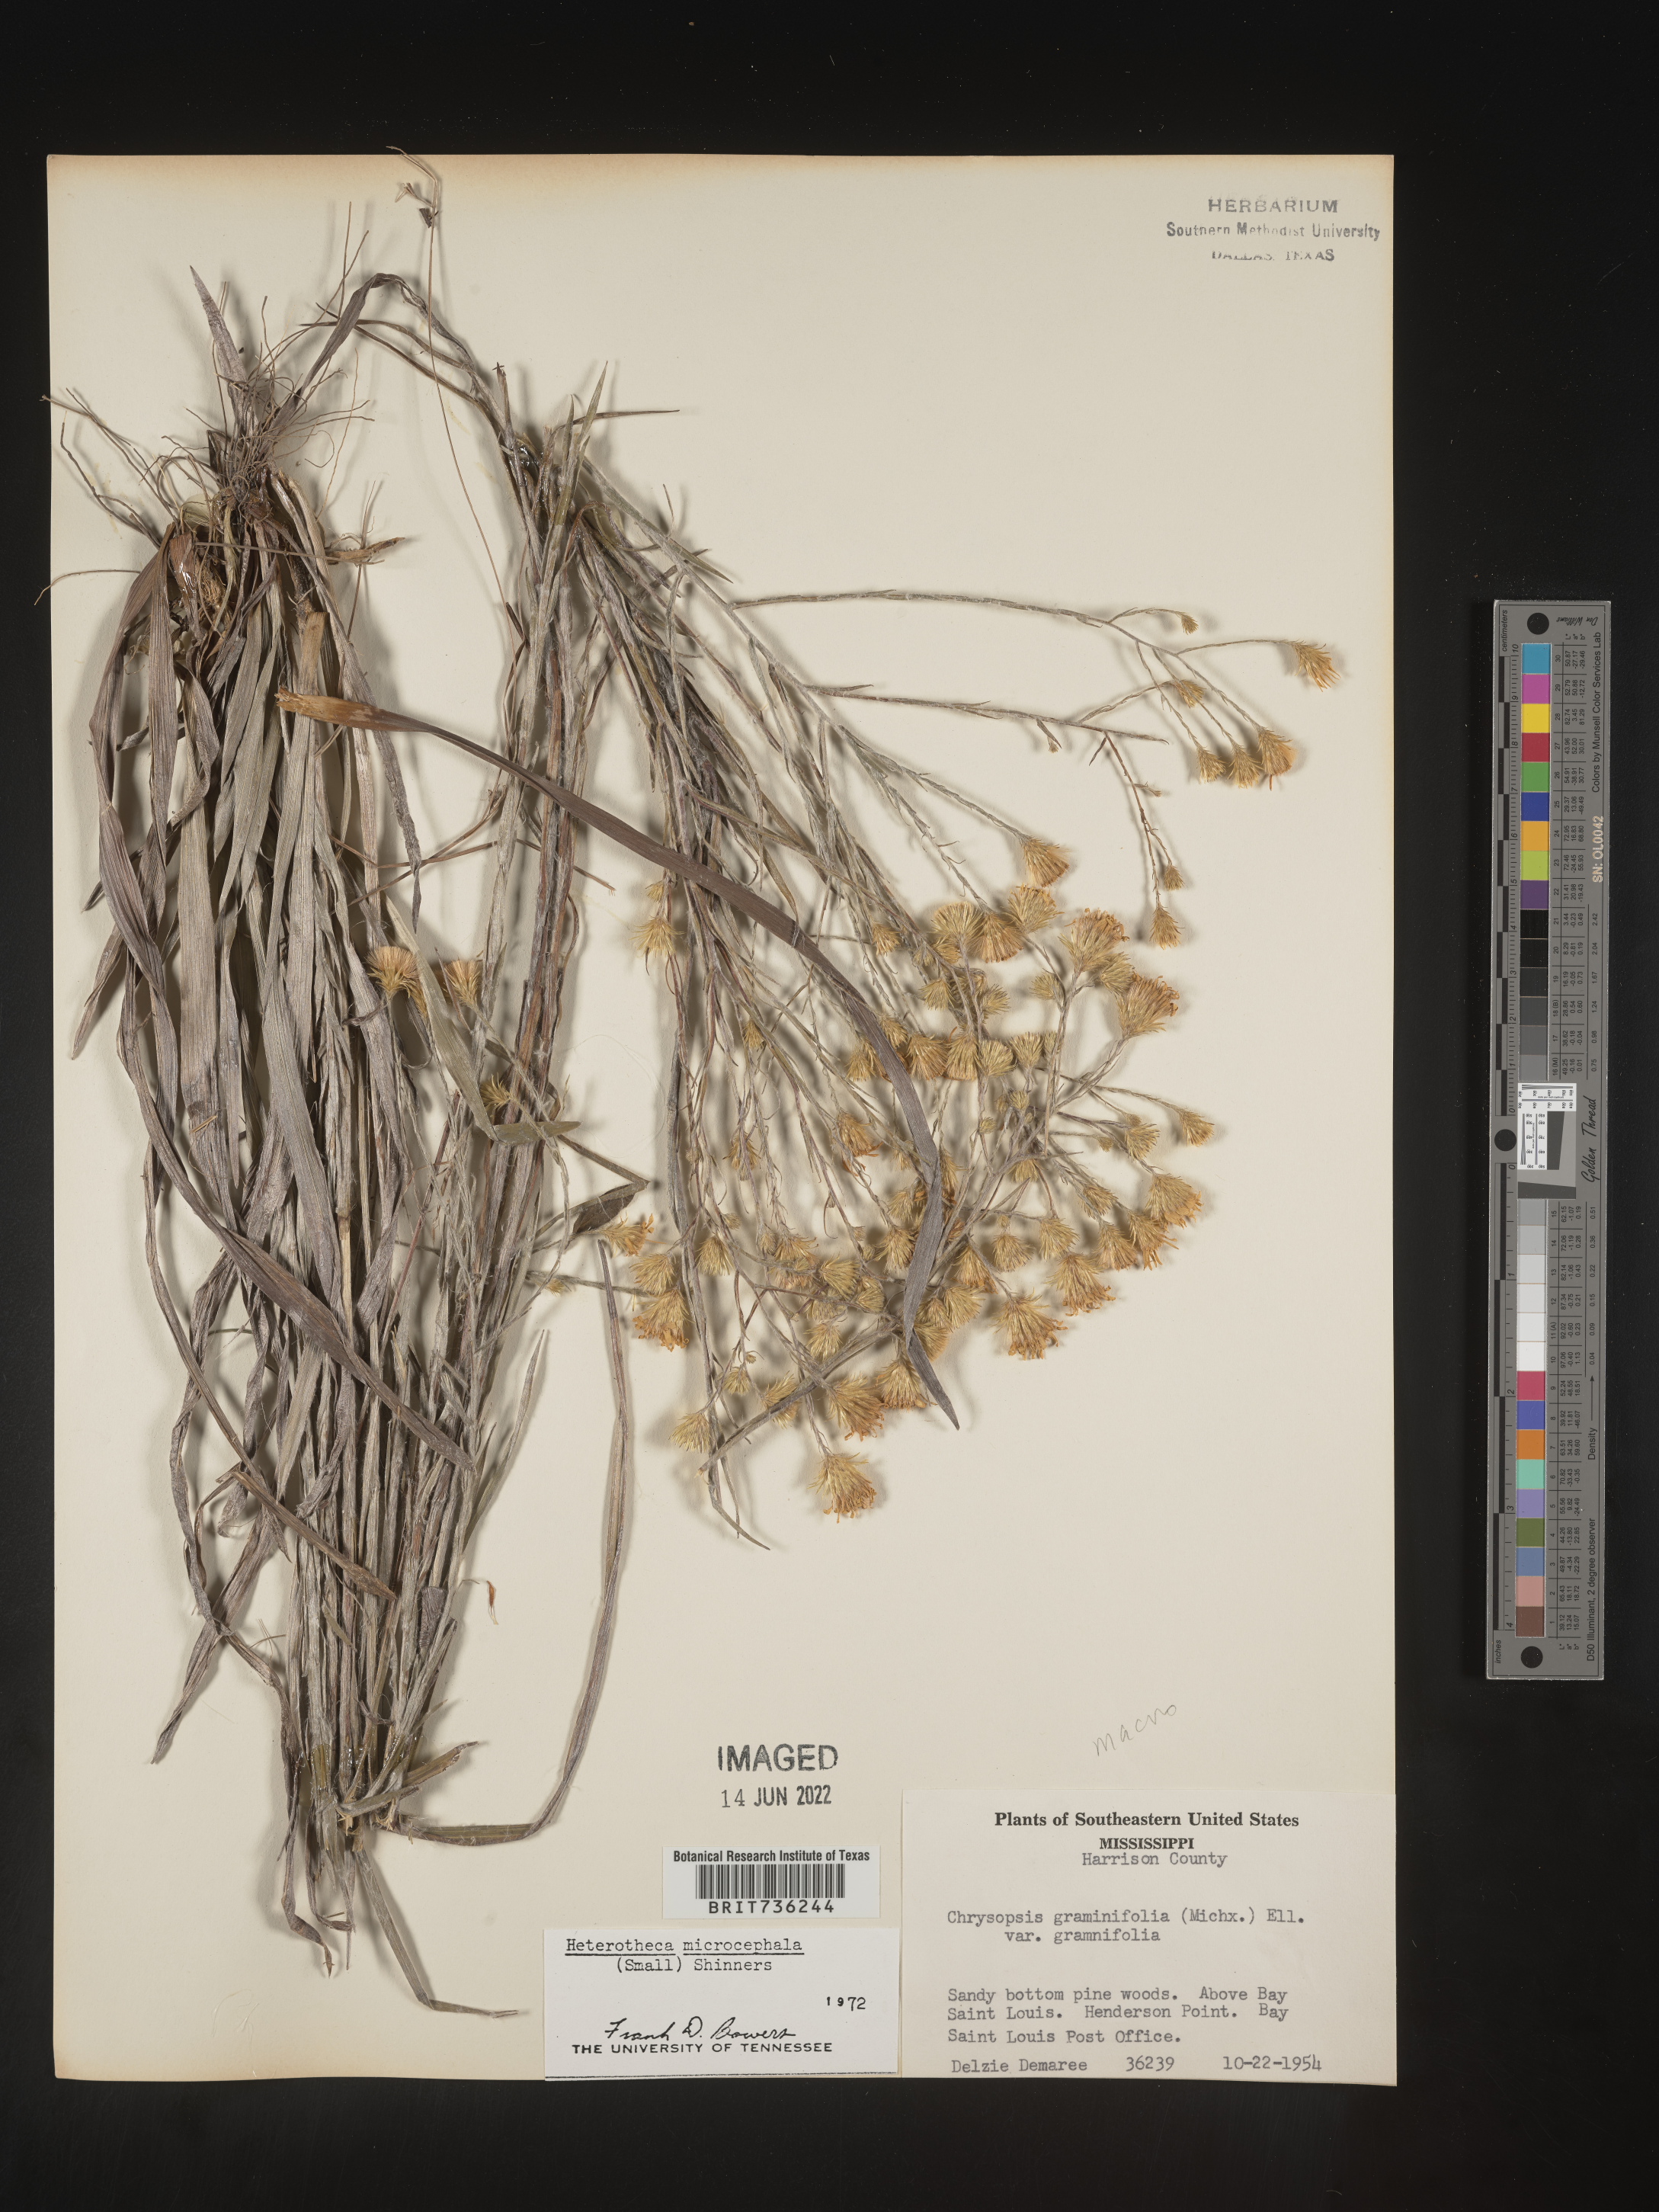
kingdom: Plantae
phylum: Tracheophyta
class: Magnoliopsida
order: Asterales
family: Asteraceae
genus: Pityopsis
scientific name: Pityopsis graminifolia
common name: Grass-leaf golden-aster
